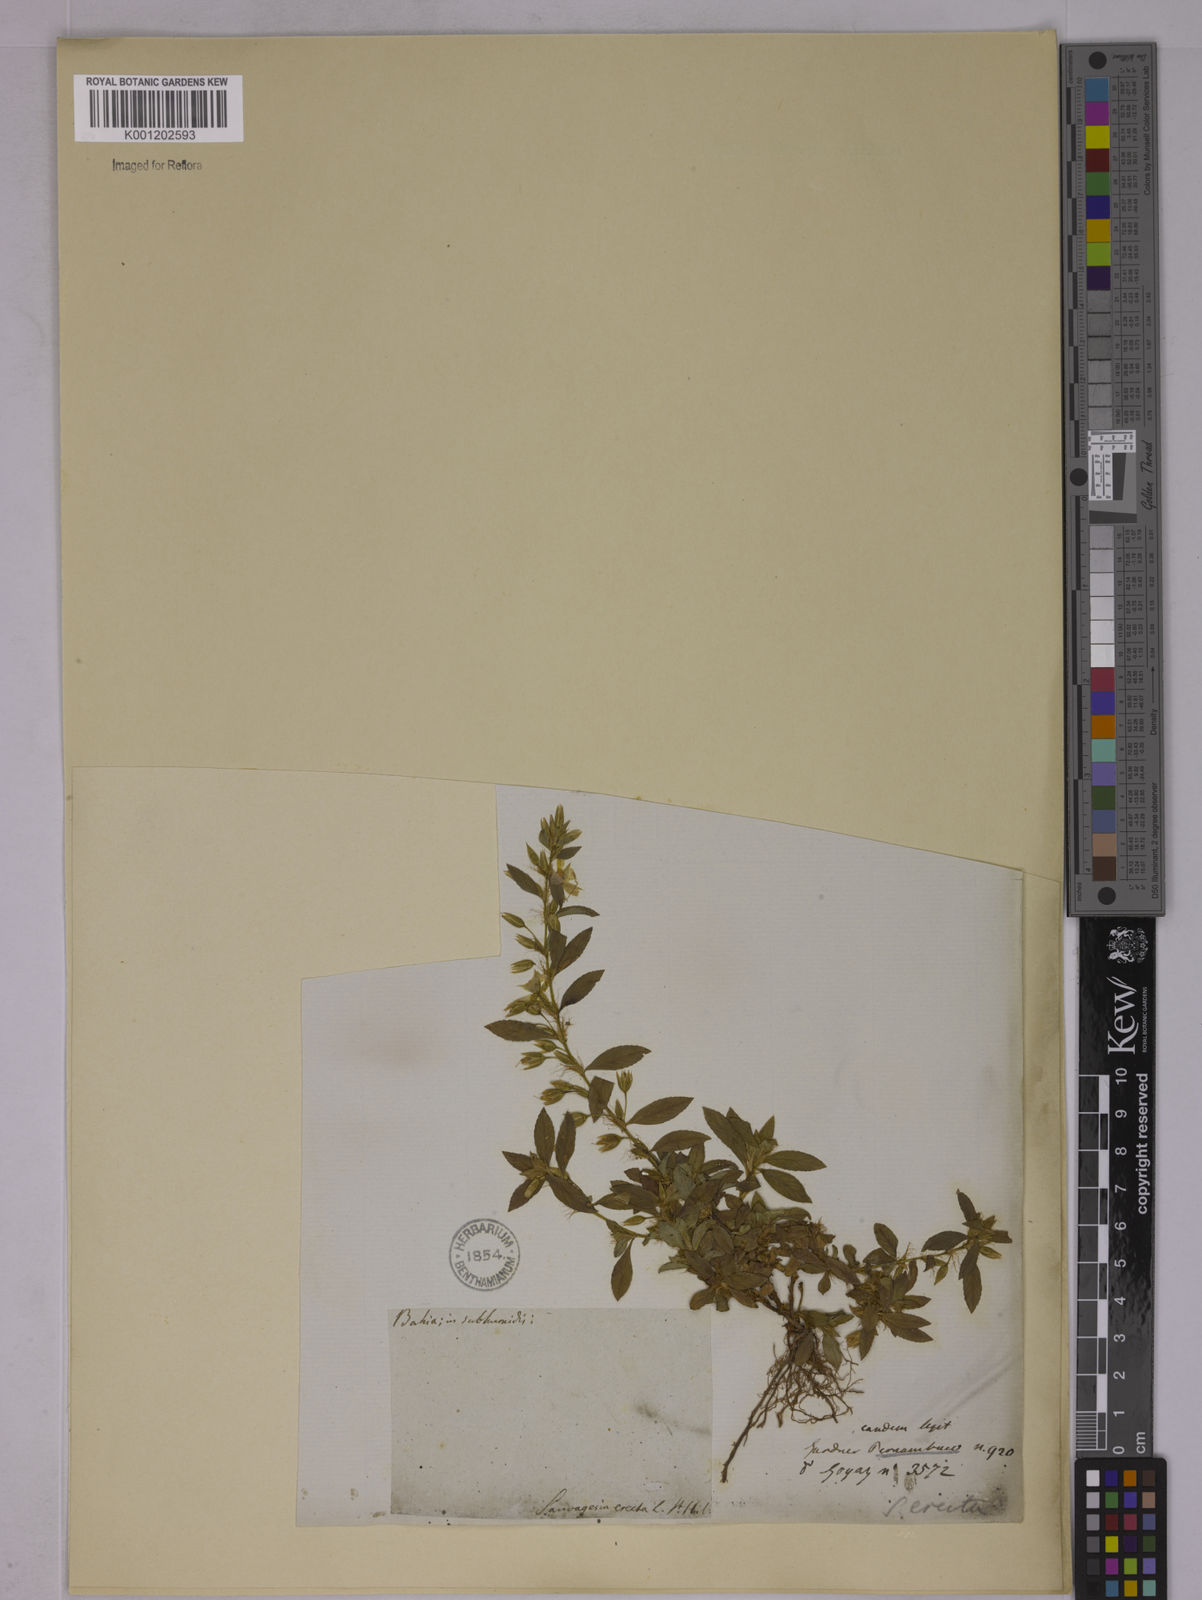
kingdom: Plantae
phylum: Tracheophyta
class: Magnoliopsida
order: Malpighiales
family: Ochnaceae
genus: Sauvagesia
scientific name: Sauvagesia erecta
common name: Creole tea
